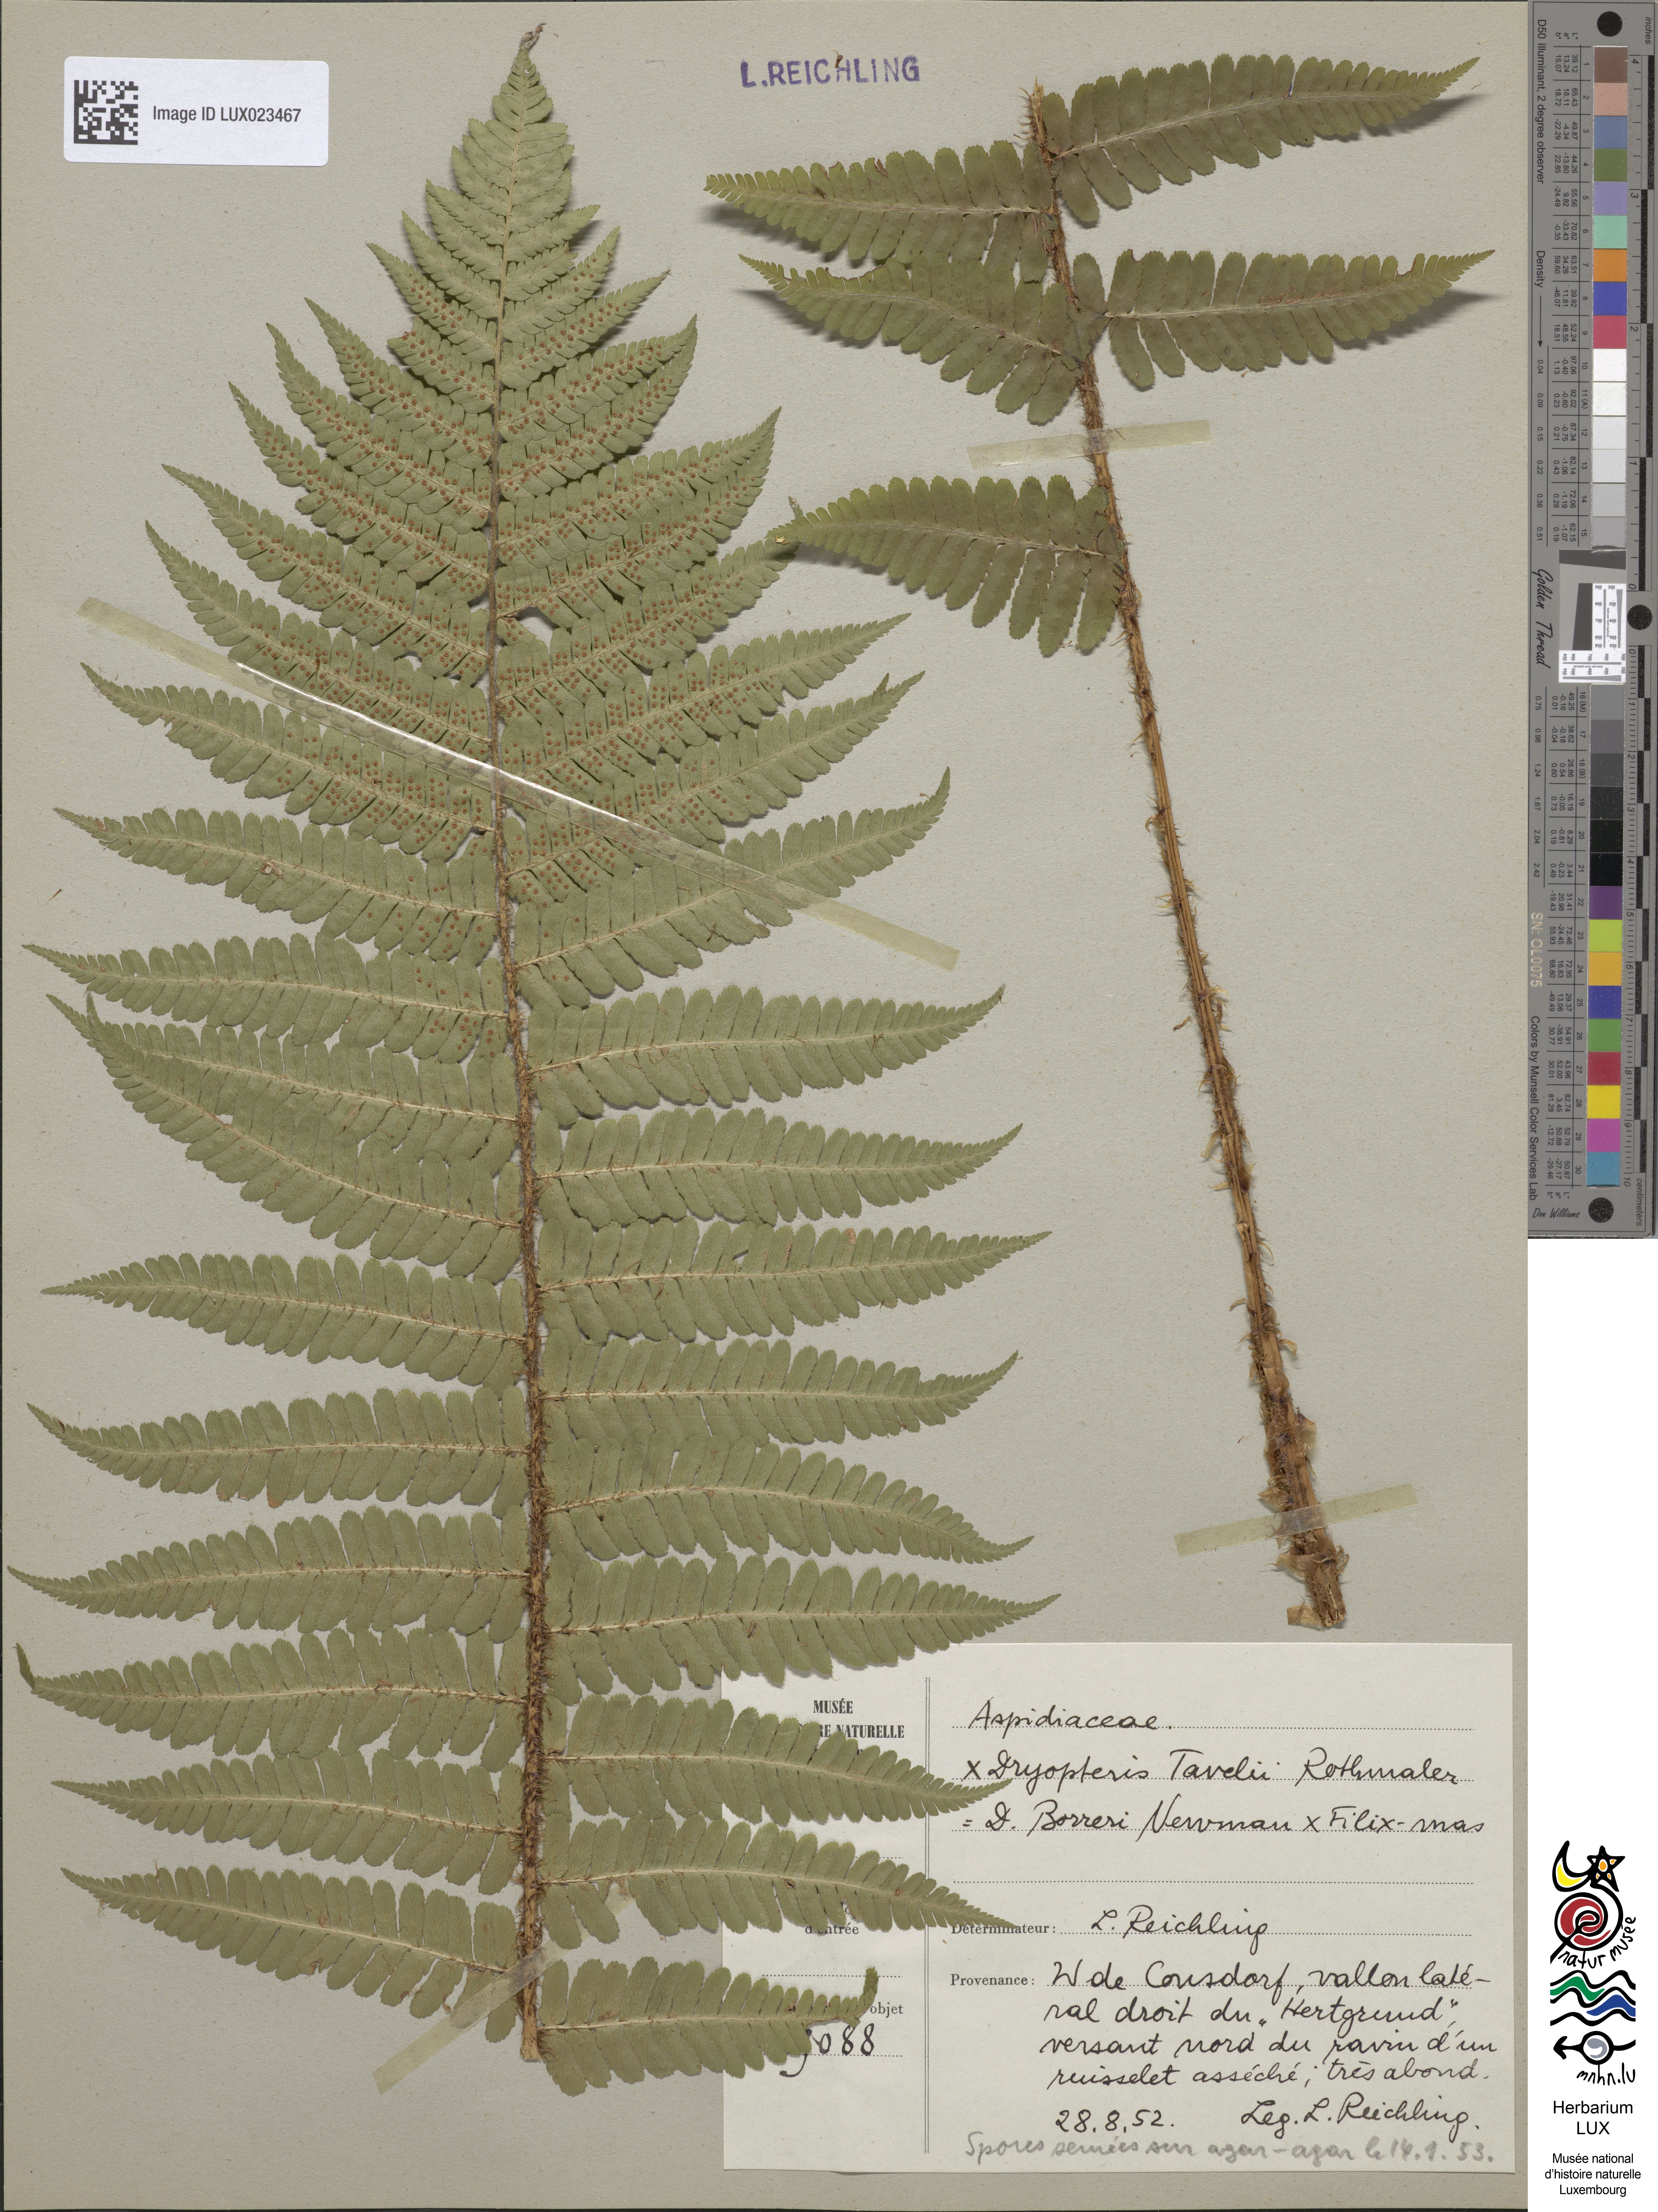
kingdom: Plantae
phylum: Tracheophyta
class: Polypodiopsida
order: Polypodiales
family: Dryopteridaceae
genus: Dryopteris
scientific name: Dryopteris borreri
